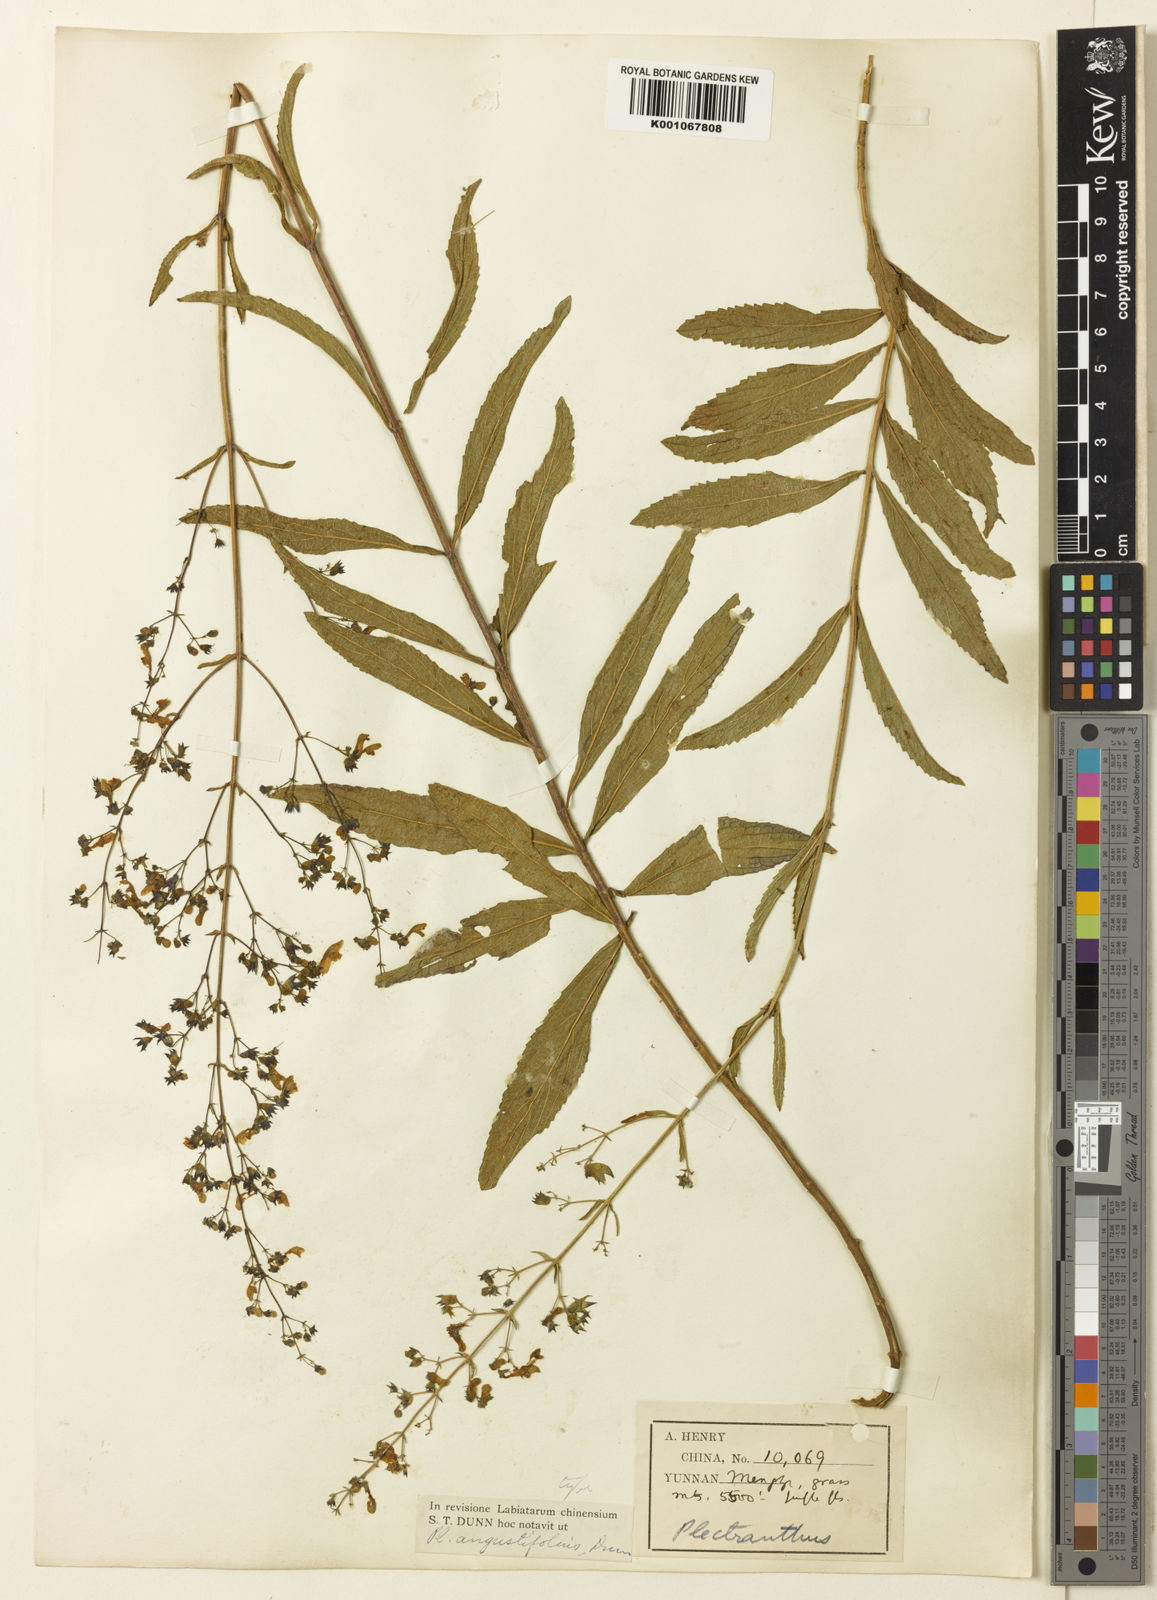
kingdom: Plantae
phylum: Tracheophyta
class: Magnoliopsida
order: Lamiales
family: Lamiaceae
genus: Isodon
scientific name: Isodon
